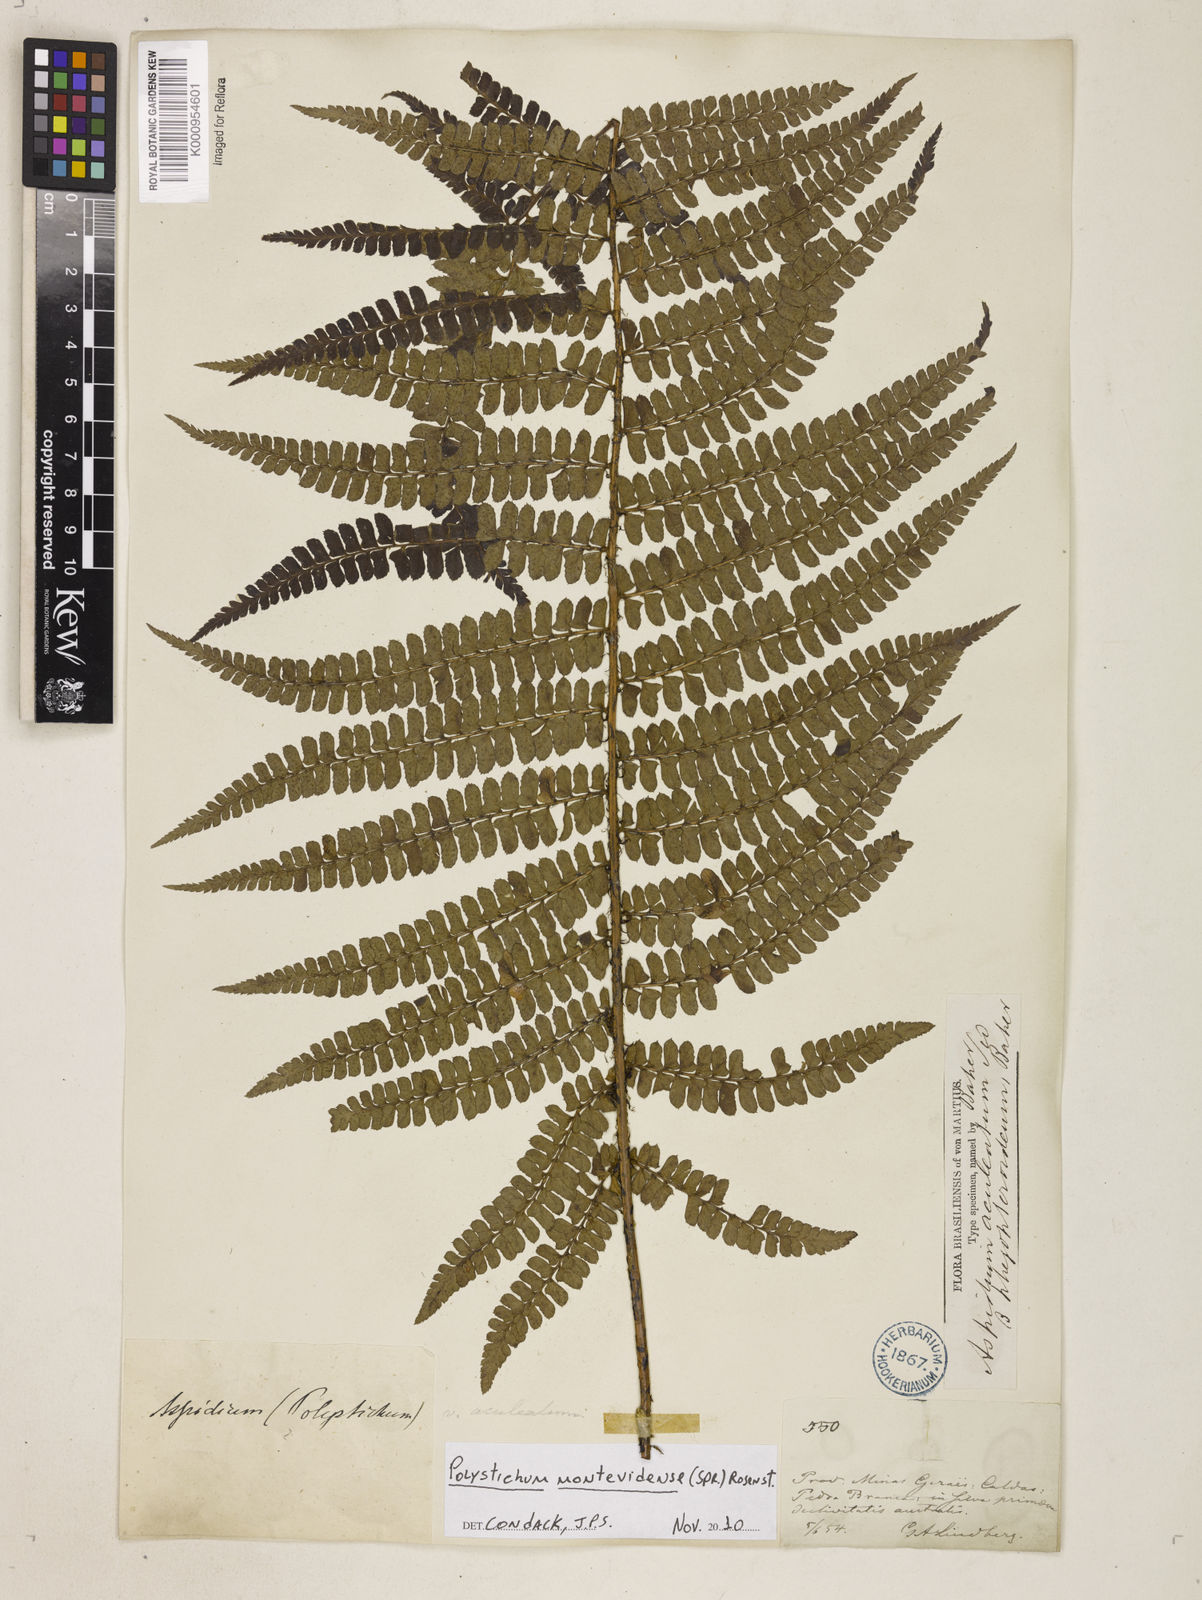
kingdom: Plantae
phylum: Tracheophyta
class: Polypodiopsida
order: Polypodiales
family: Dryopteridaceae
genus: Polystichum
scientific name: Polystichum montevidense
